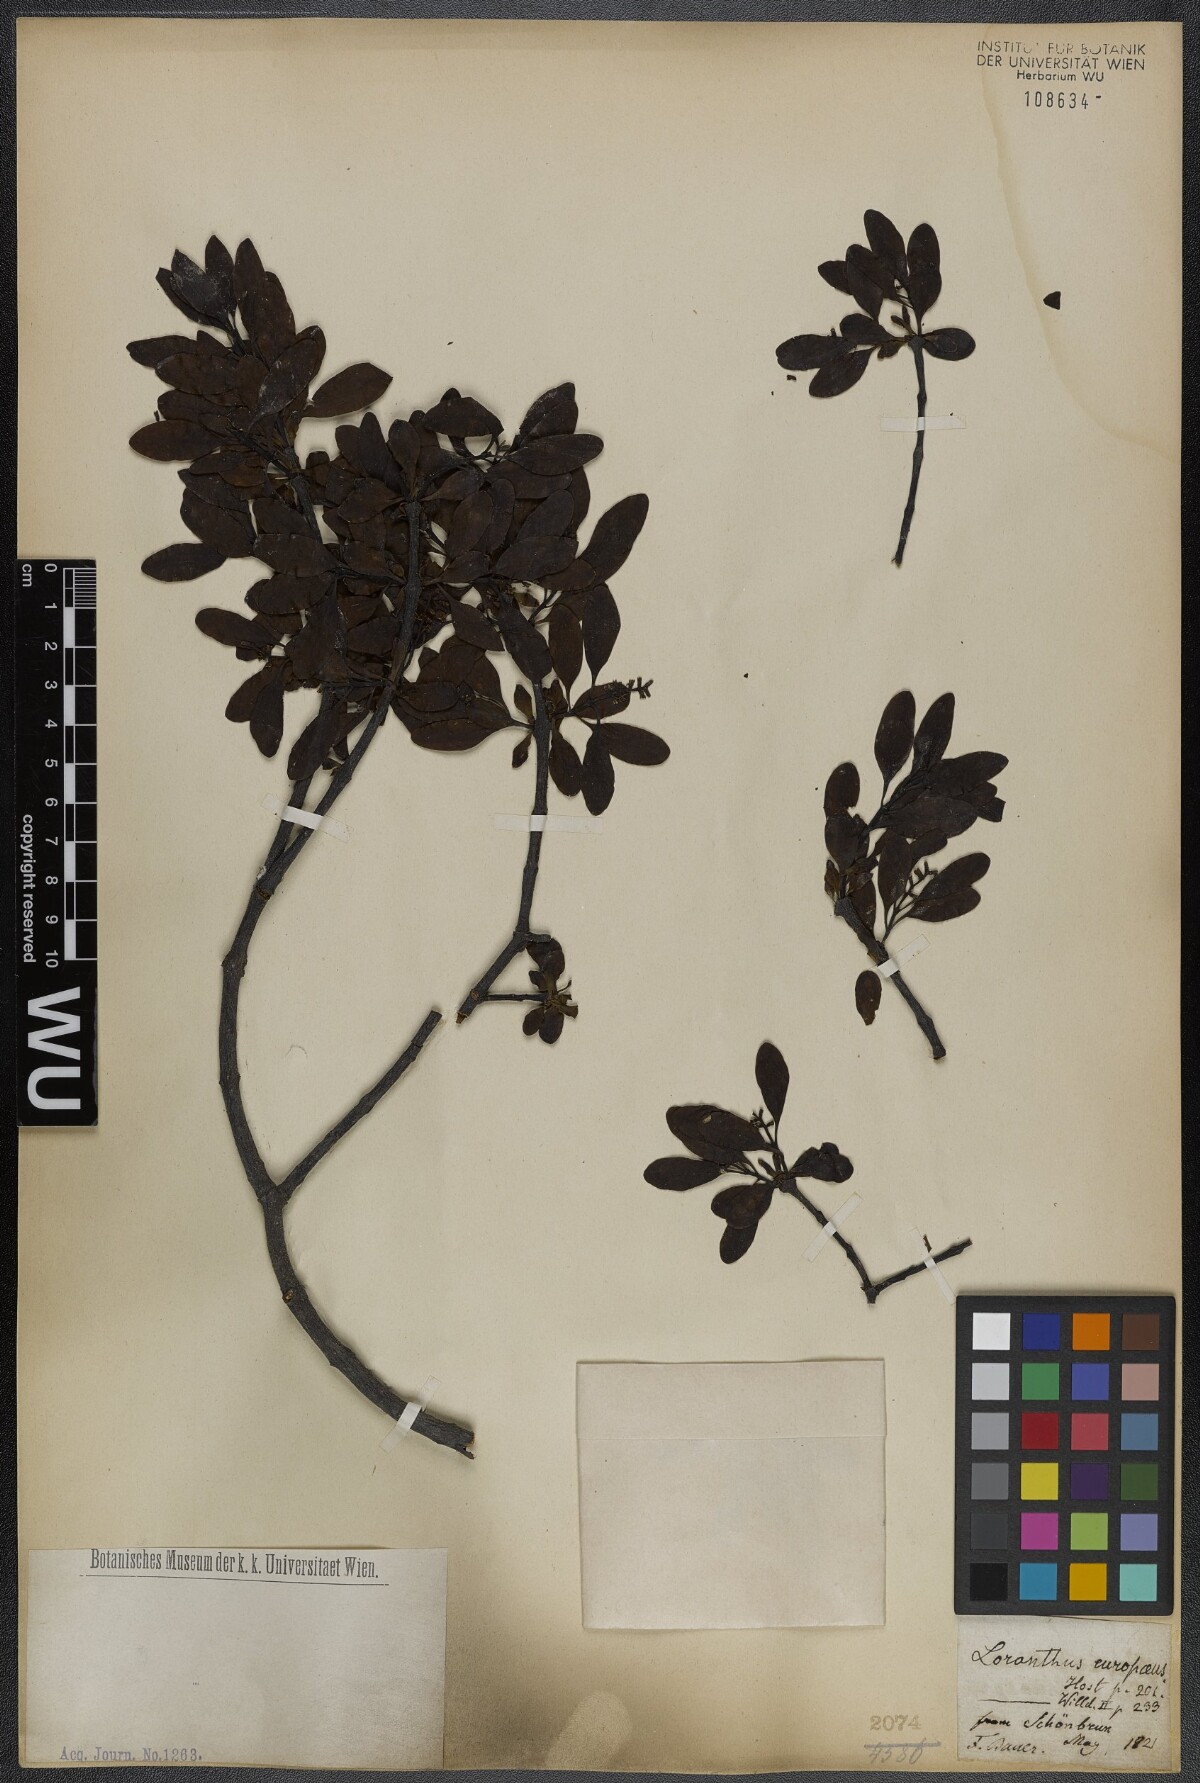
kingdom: Plantae
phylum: Tracheophyta
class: Magnoliopsida
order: Santalales
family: Loranthaceae
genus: Loranthus
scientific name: Loranthus europaeus
